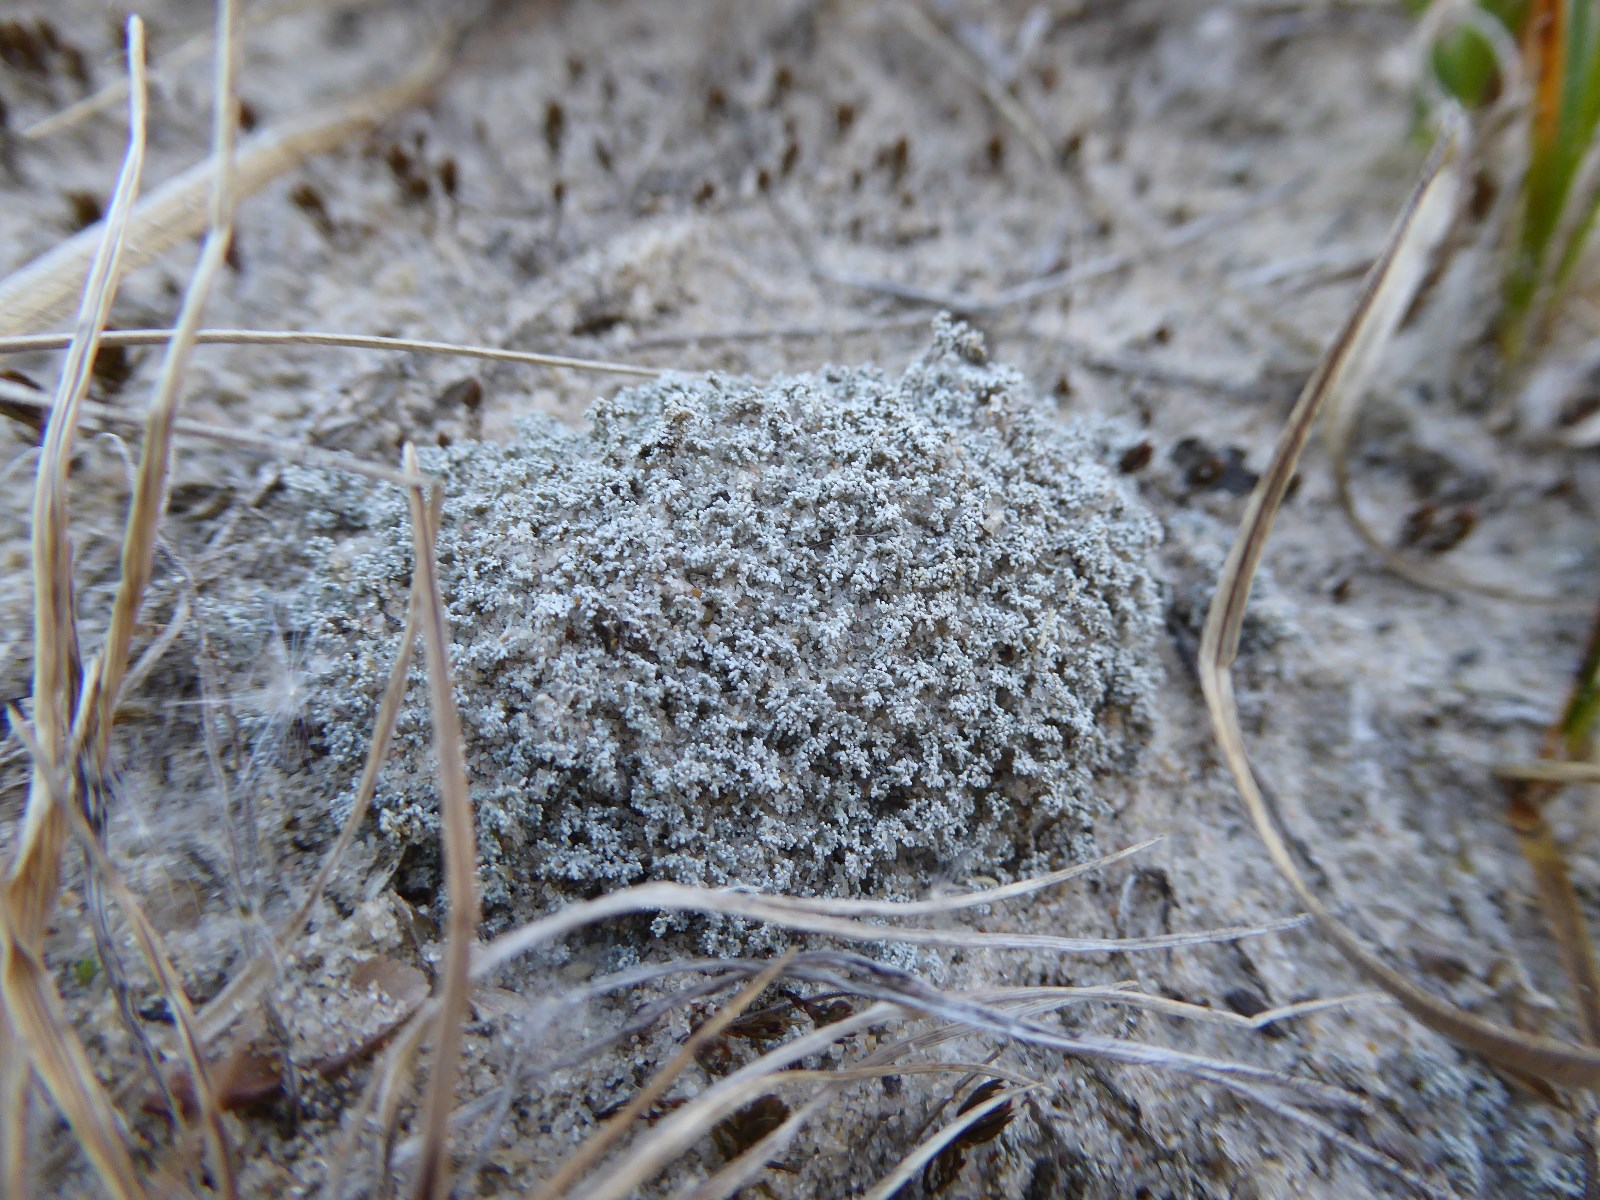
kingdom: Fungi
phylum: Ascomycota
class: Lecanoromycetes
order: Lecanorales
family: Stereocaulaceae
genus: Stereocaulon
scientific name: Stereocaulon condensatum
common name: lav korallav
